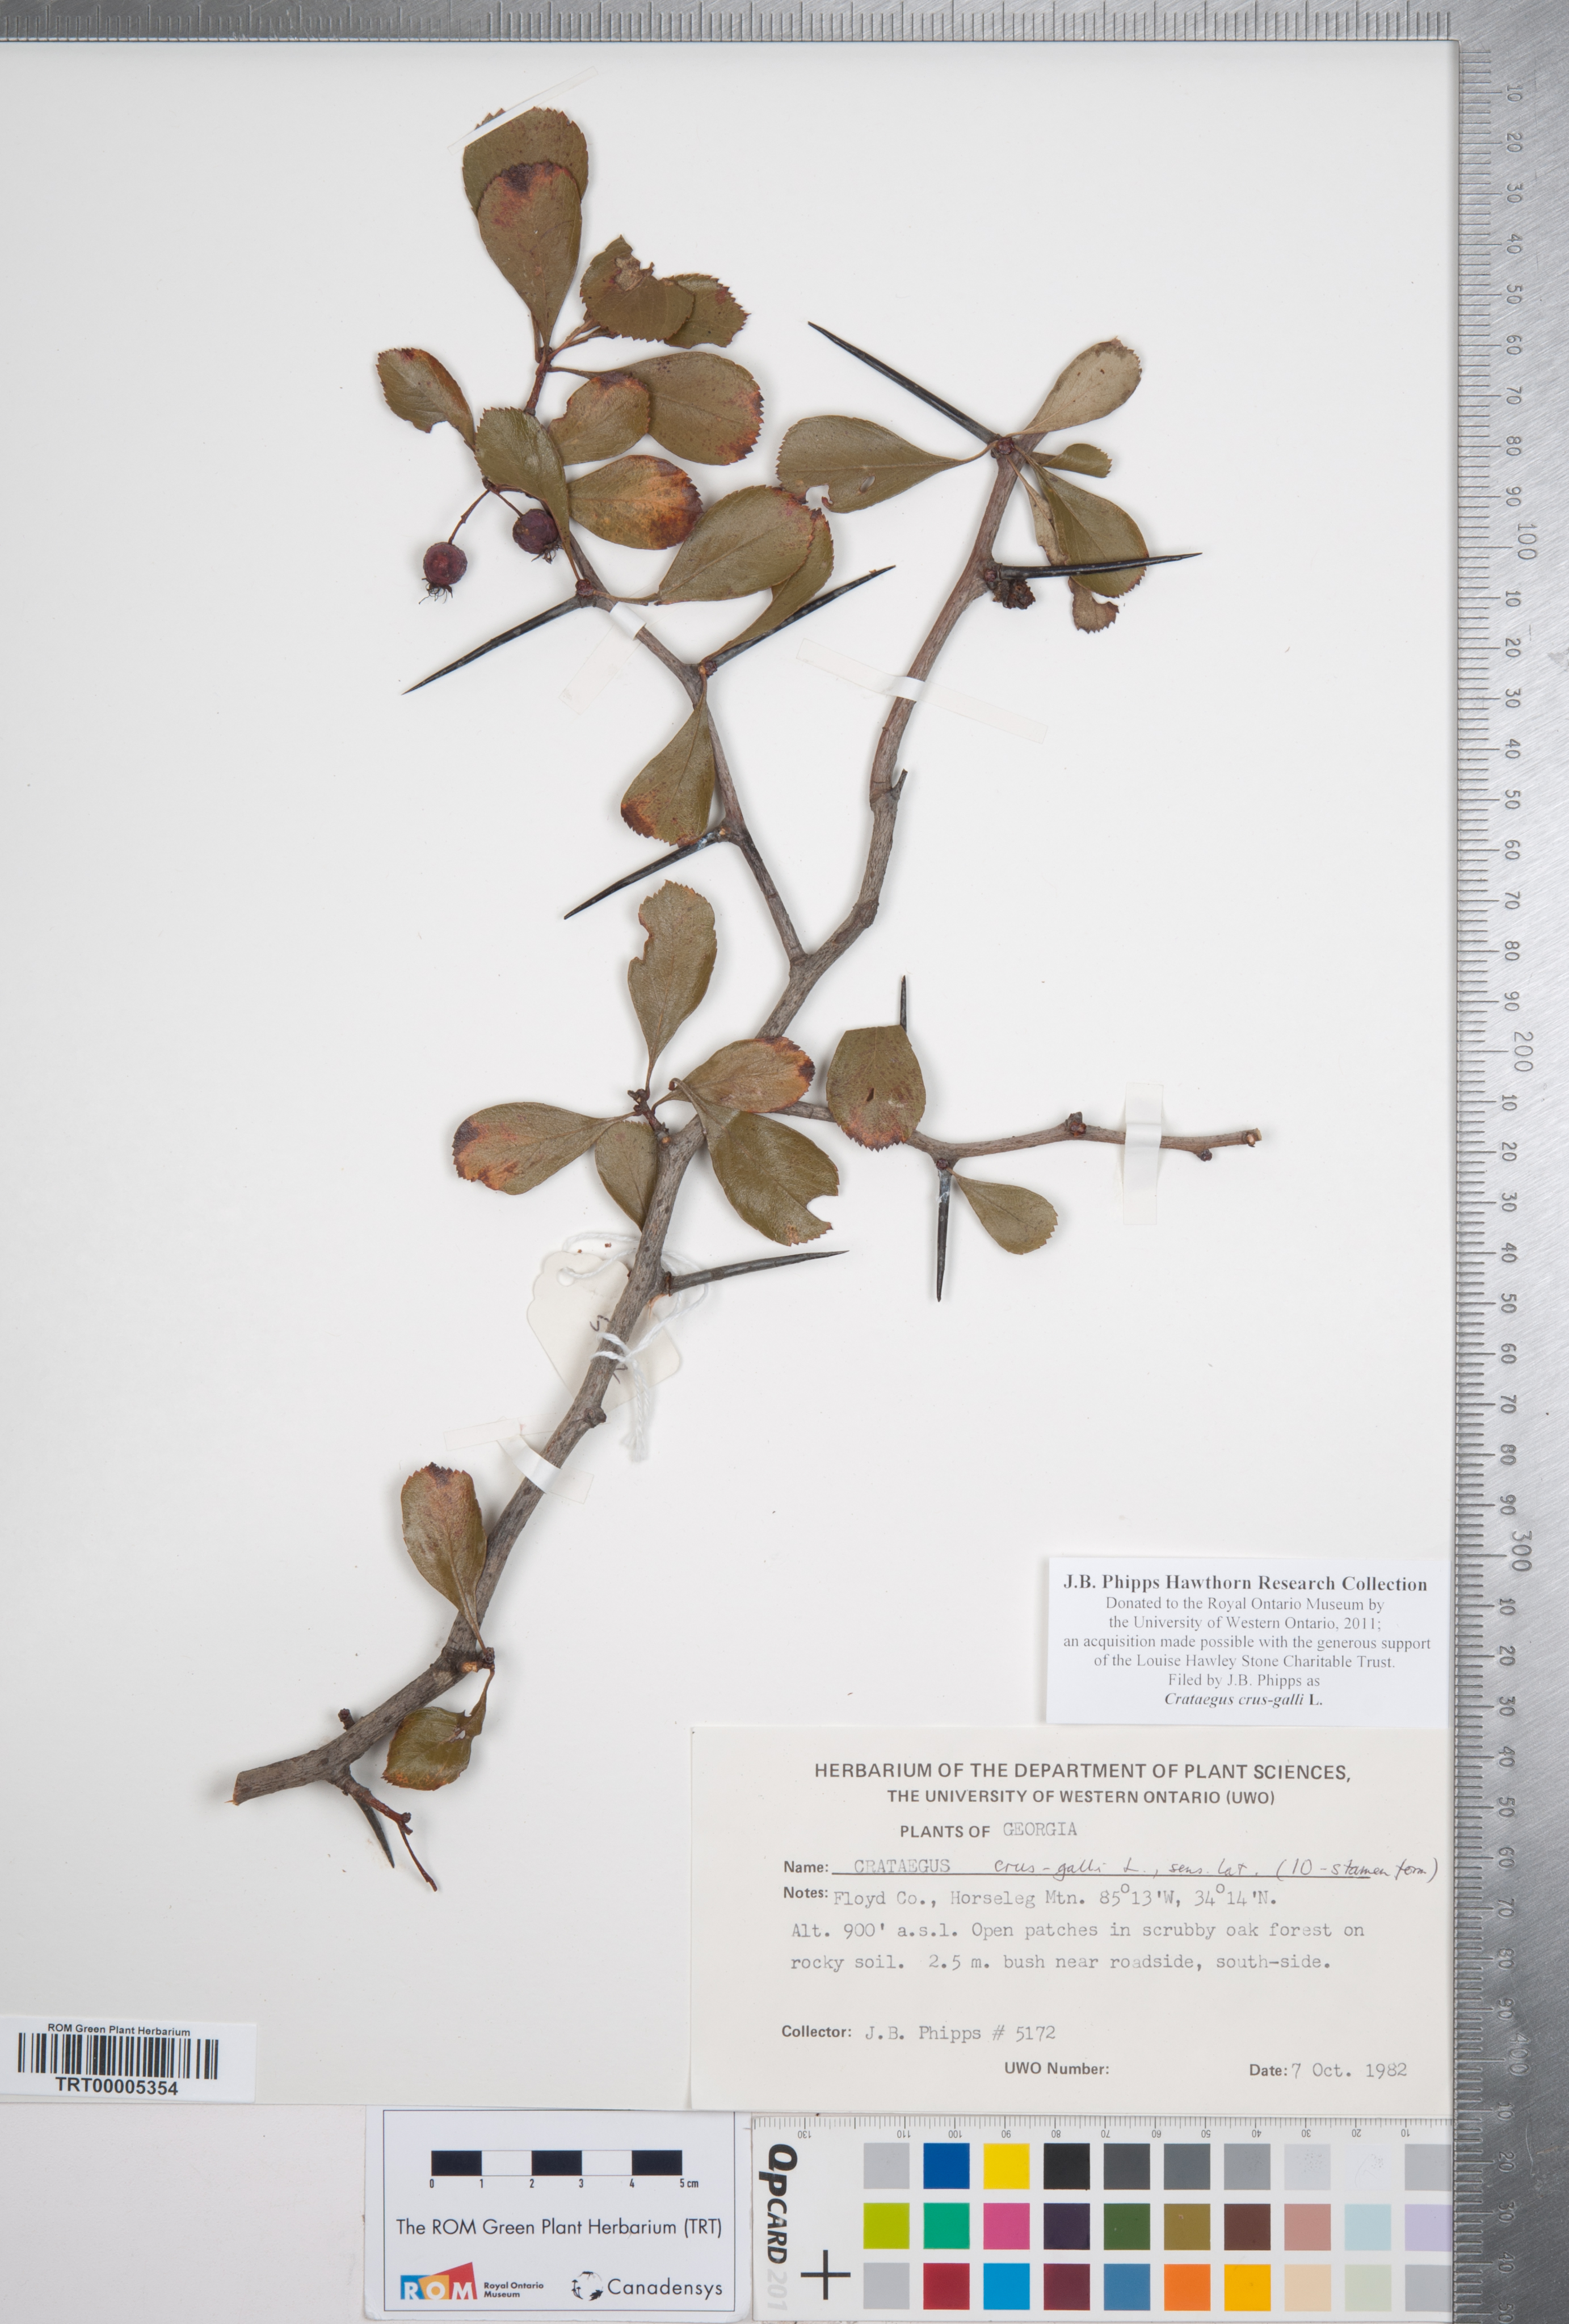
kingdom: Plantae
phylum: Tracheophyta
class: Magnoliopsida
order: Rosales
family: Rosaceae
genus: Crataegus
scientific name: Crataegus crus-galli
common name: Cockspurthorn
